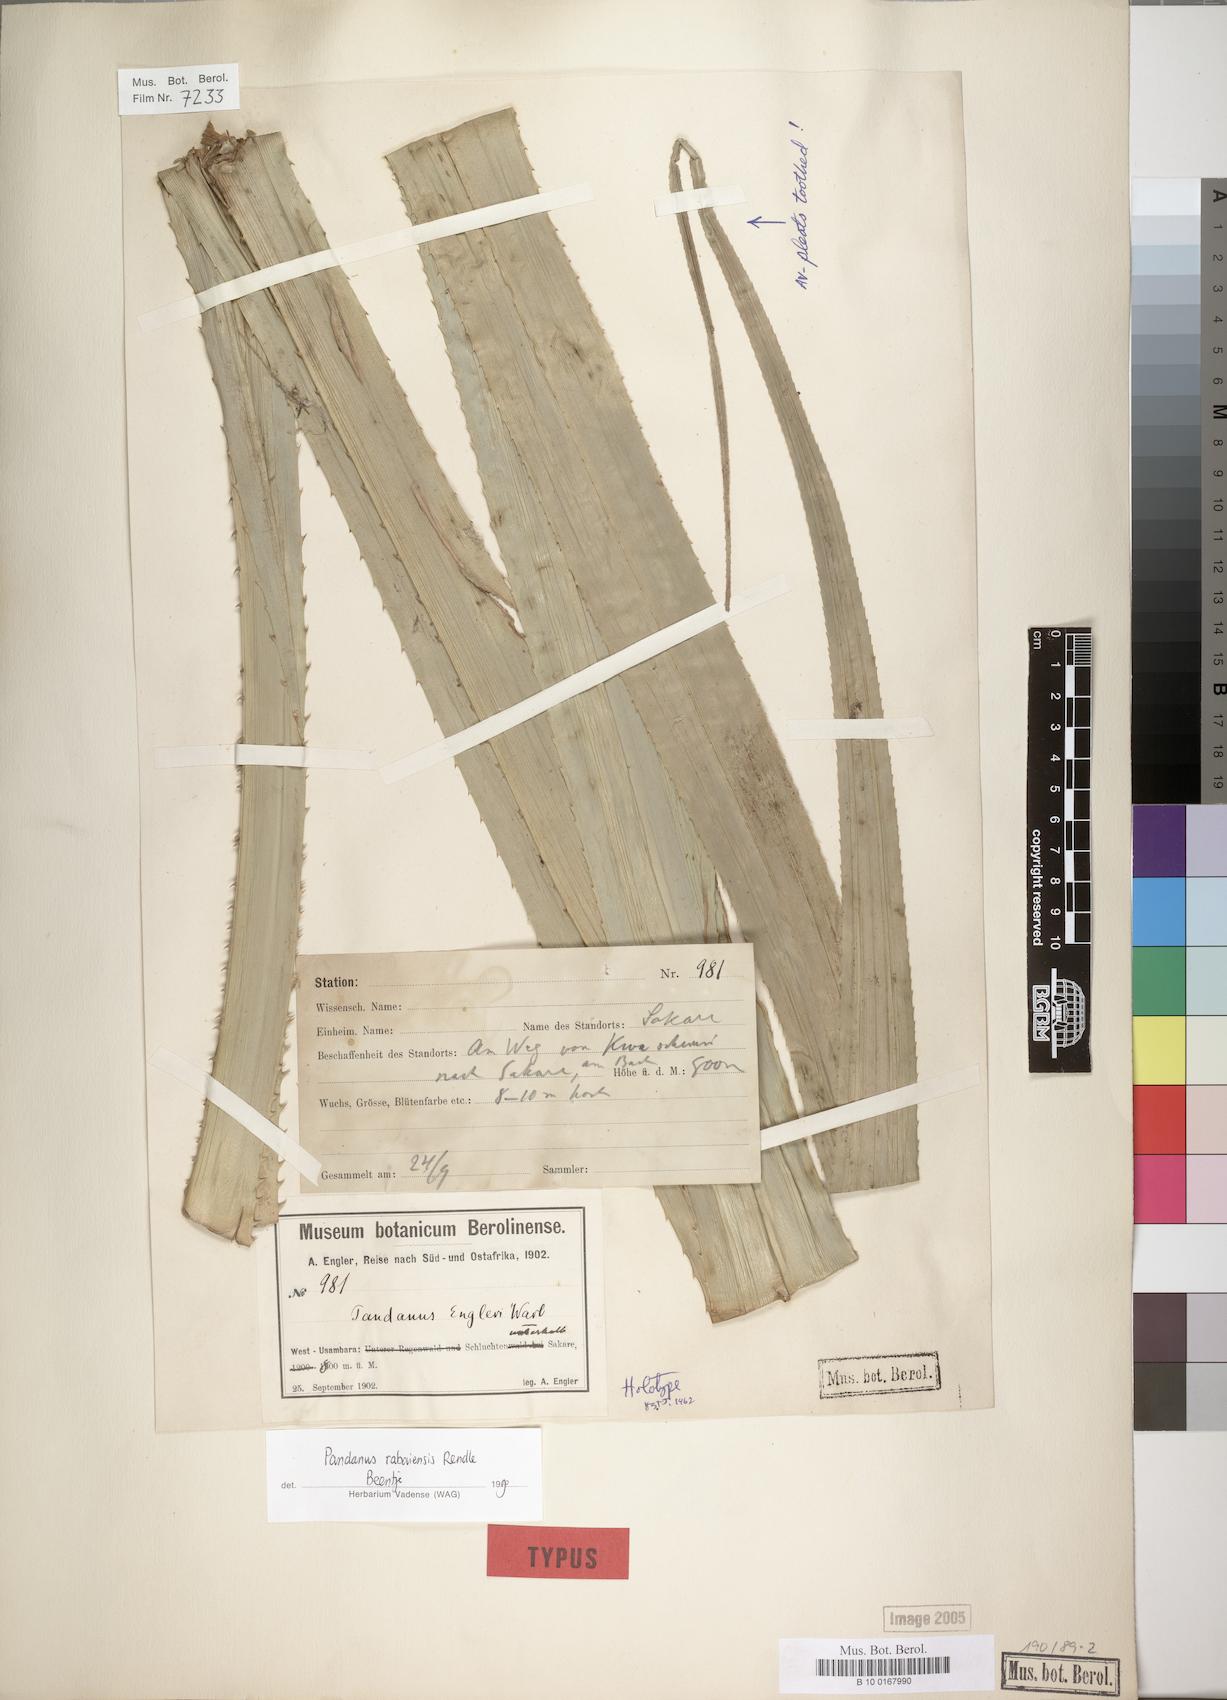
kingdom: Plantae
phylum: Tracheophyta
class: Liliopsida
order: Pandanales
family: Pandanaceae
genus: Pandanus
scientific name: Pandanus rabaiensis
